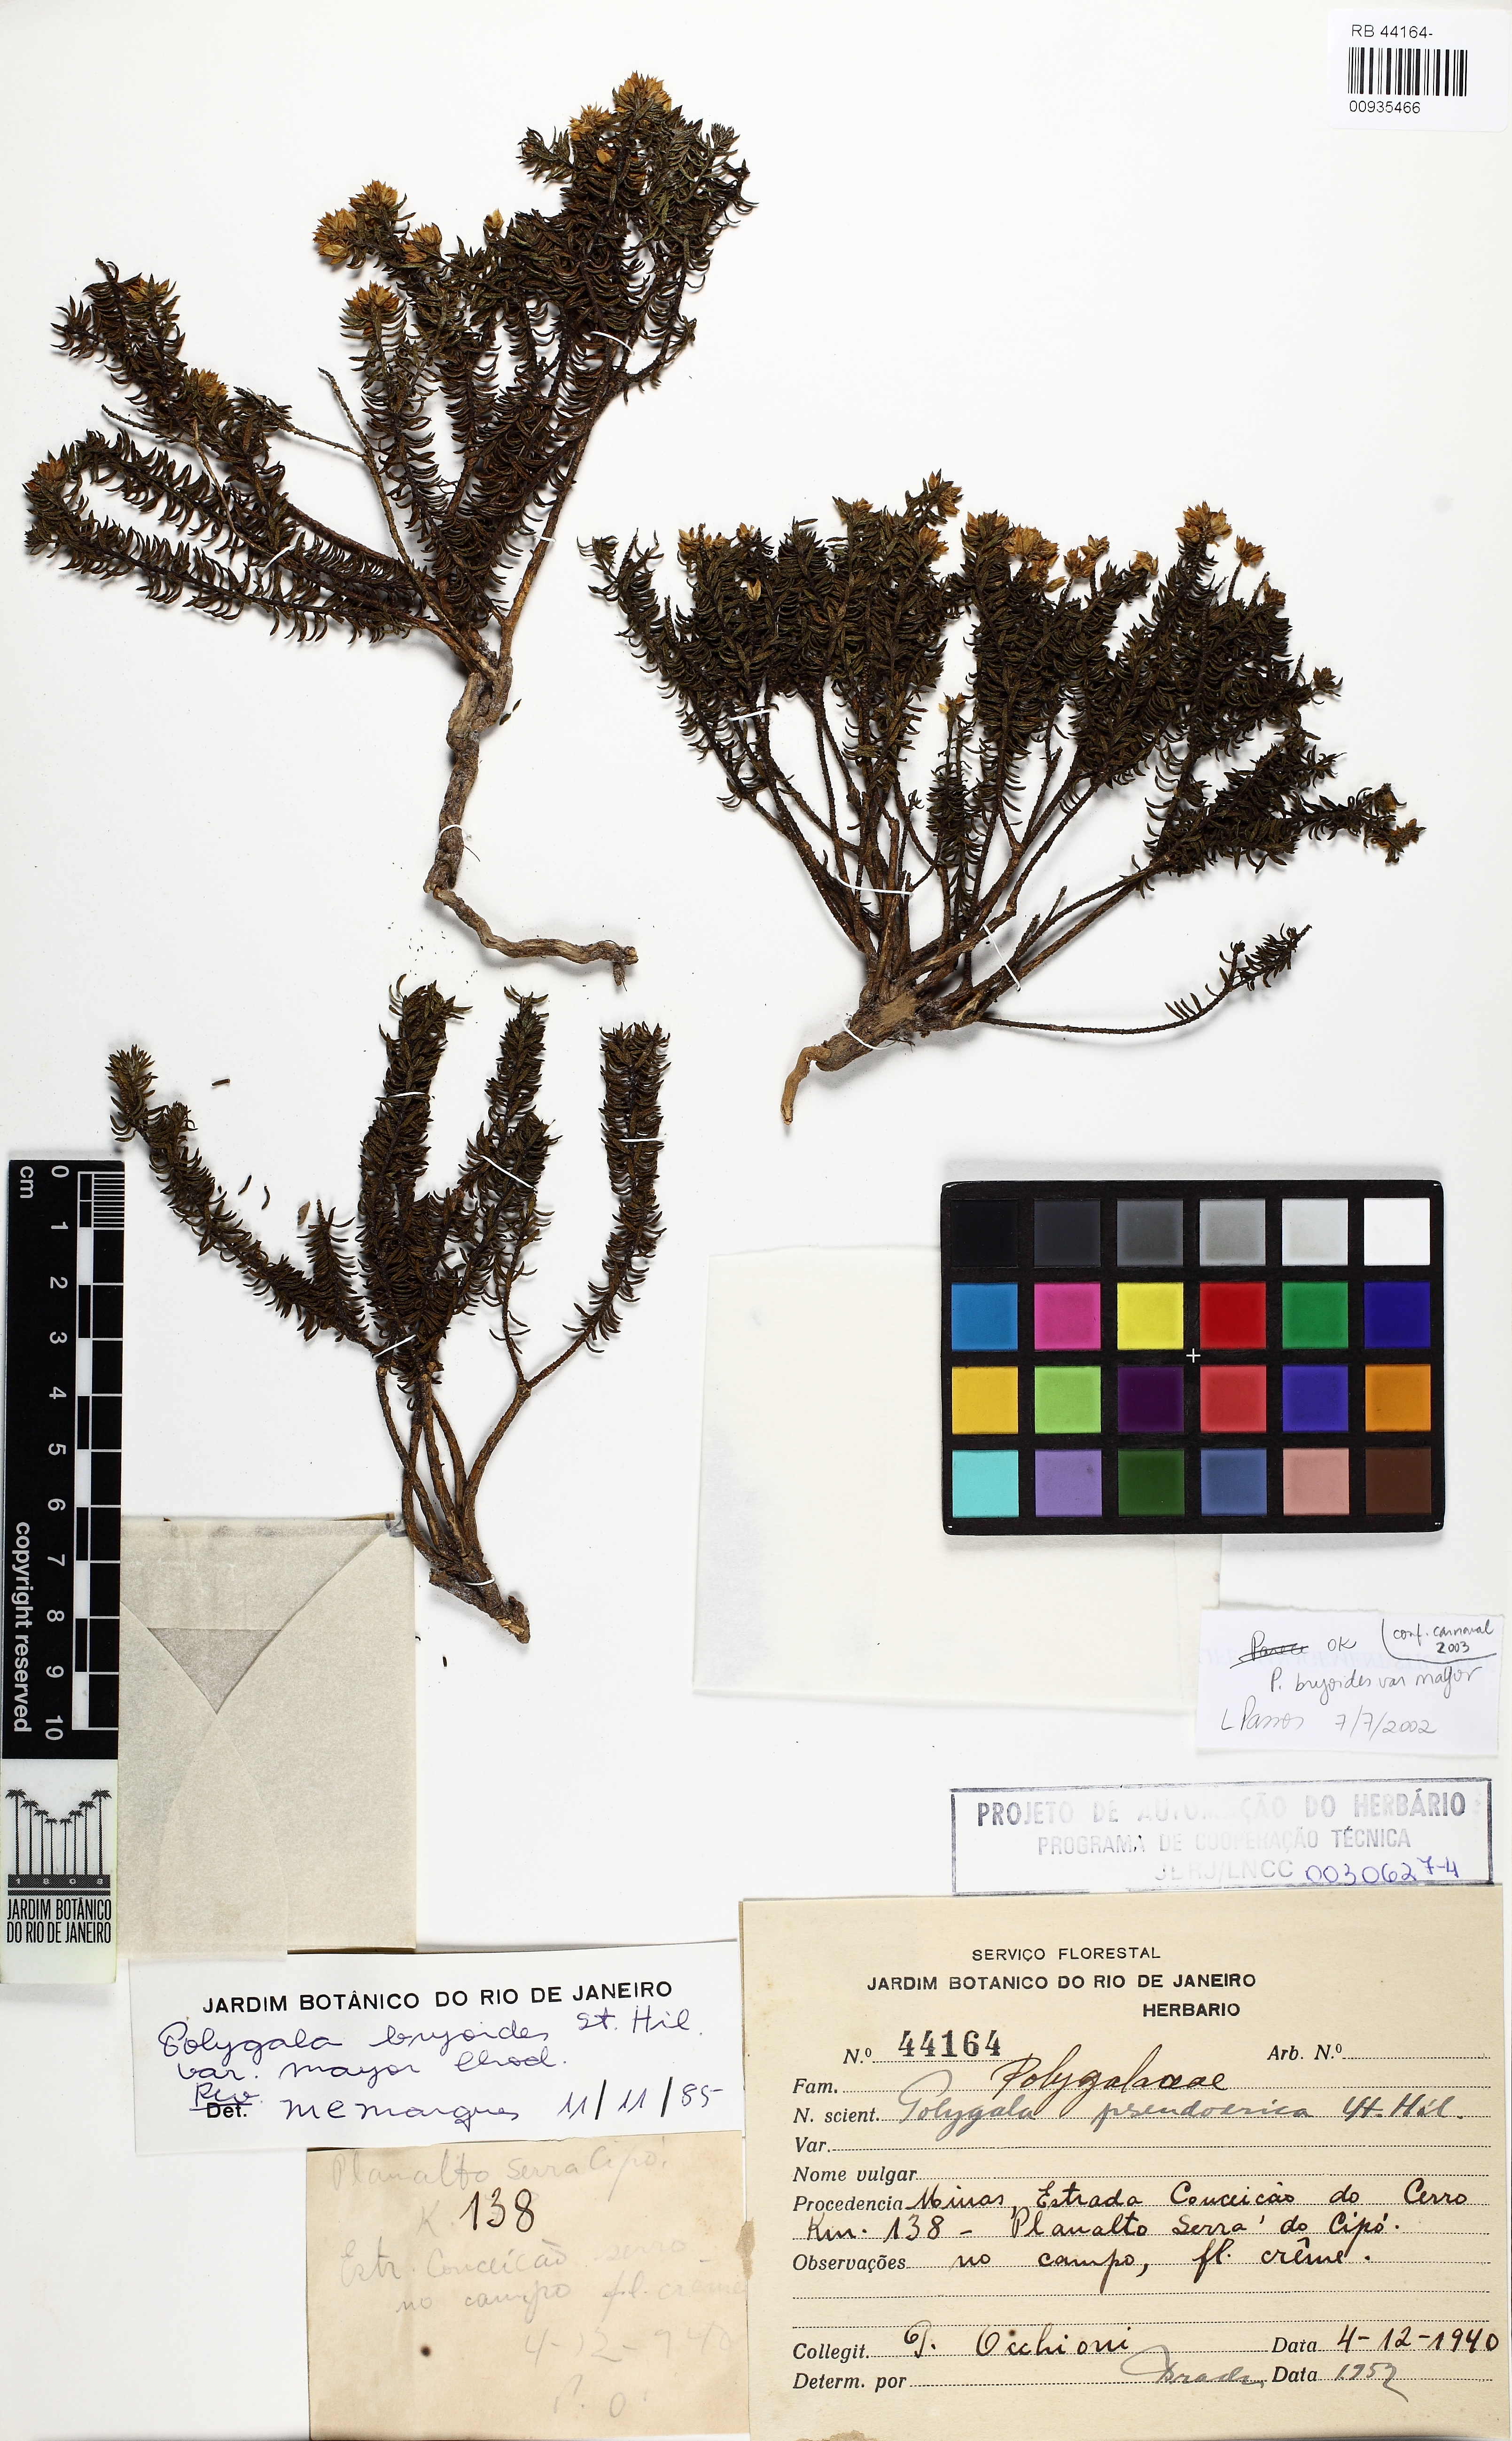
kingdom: Plantae
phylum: Tracheophyta
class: Magnoliopsida
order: Fabales
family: Polygalaceae
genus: Polygala
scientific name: Polygala bryoides
